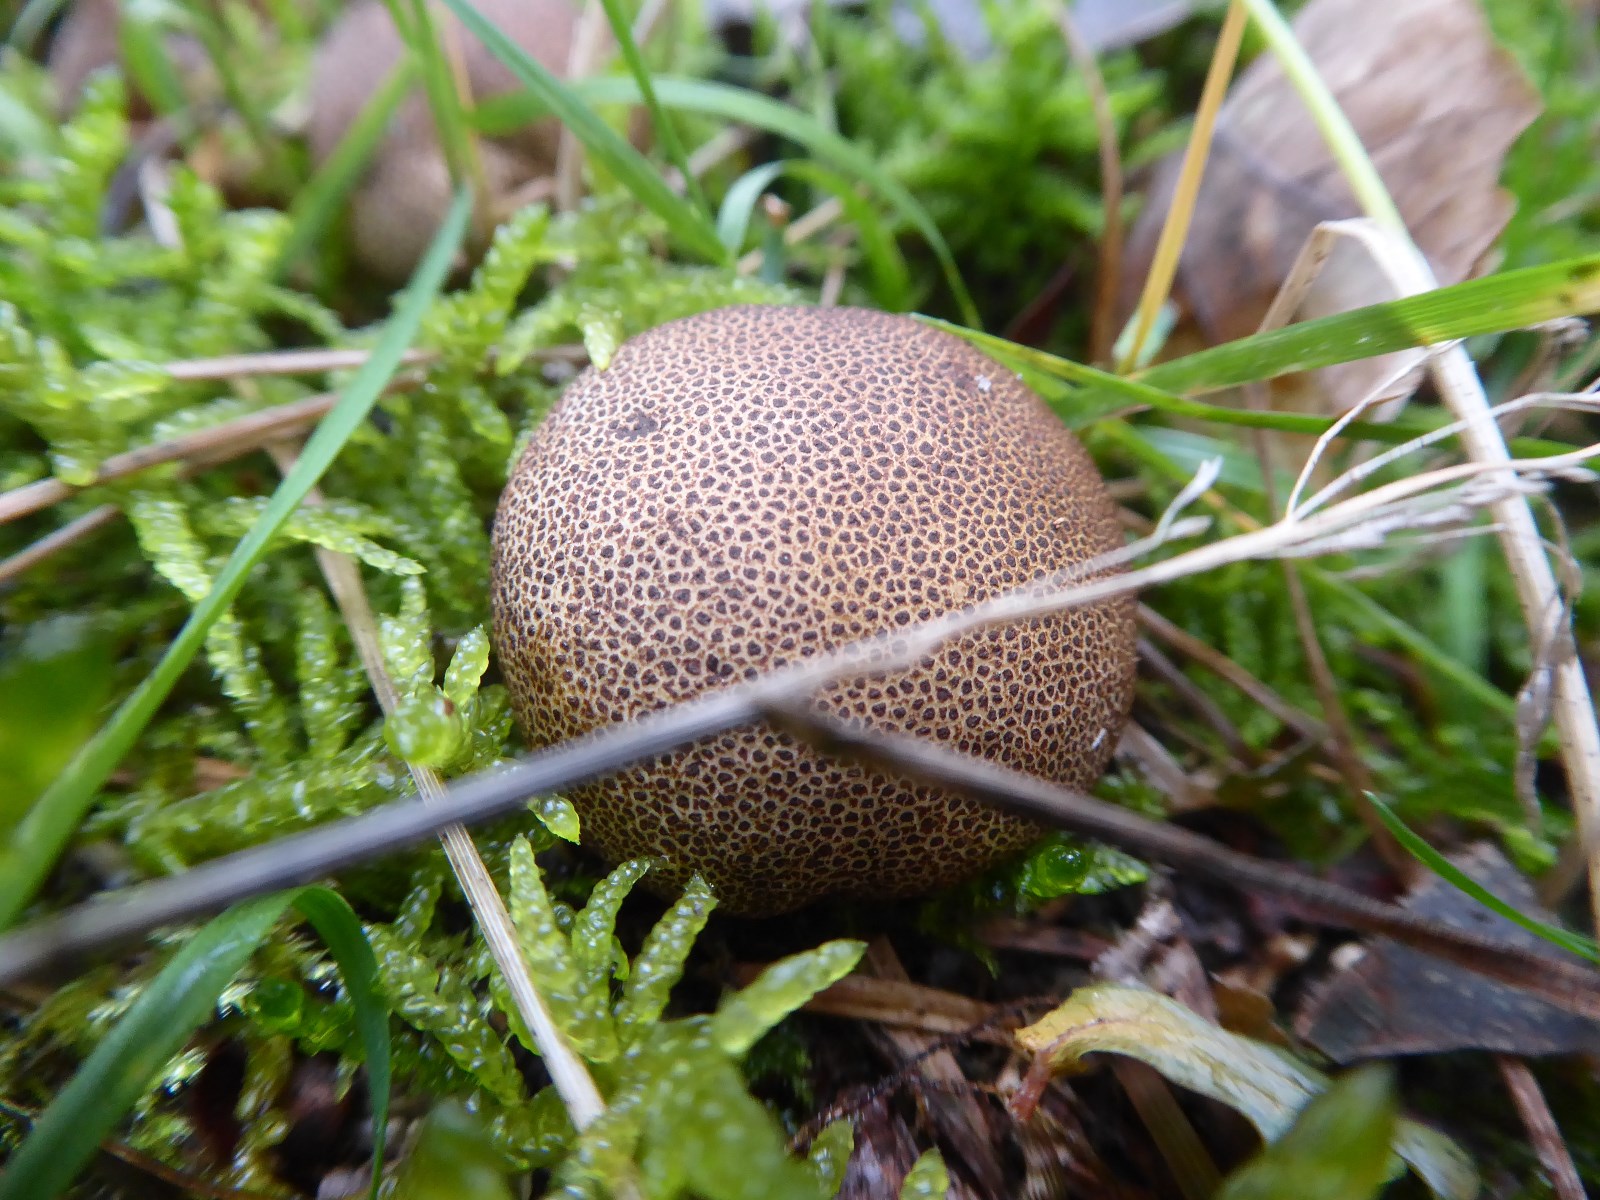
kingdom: Fungi
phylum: Basidiomycota
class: Agaricomycetes
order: Boletales
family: Sclerodermataceae
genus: Scleroderma
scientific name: Scleroderma
